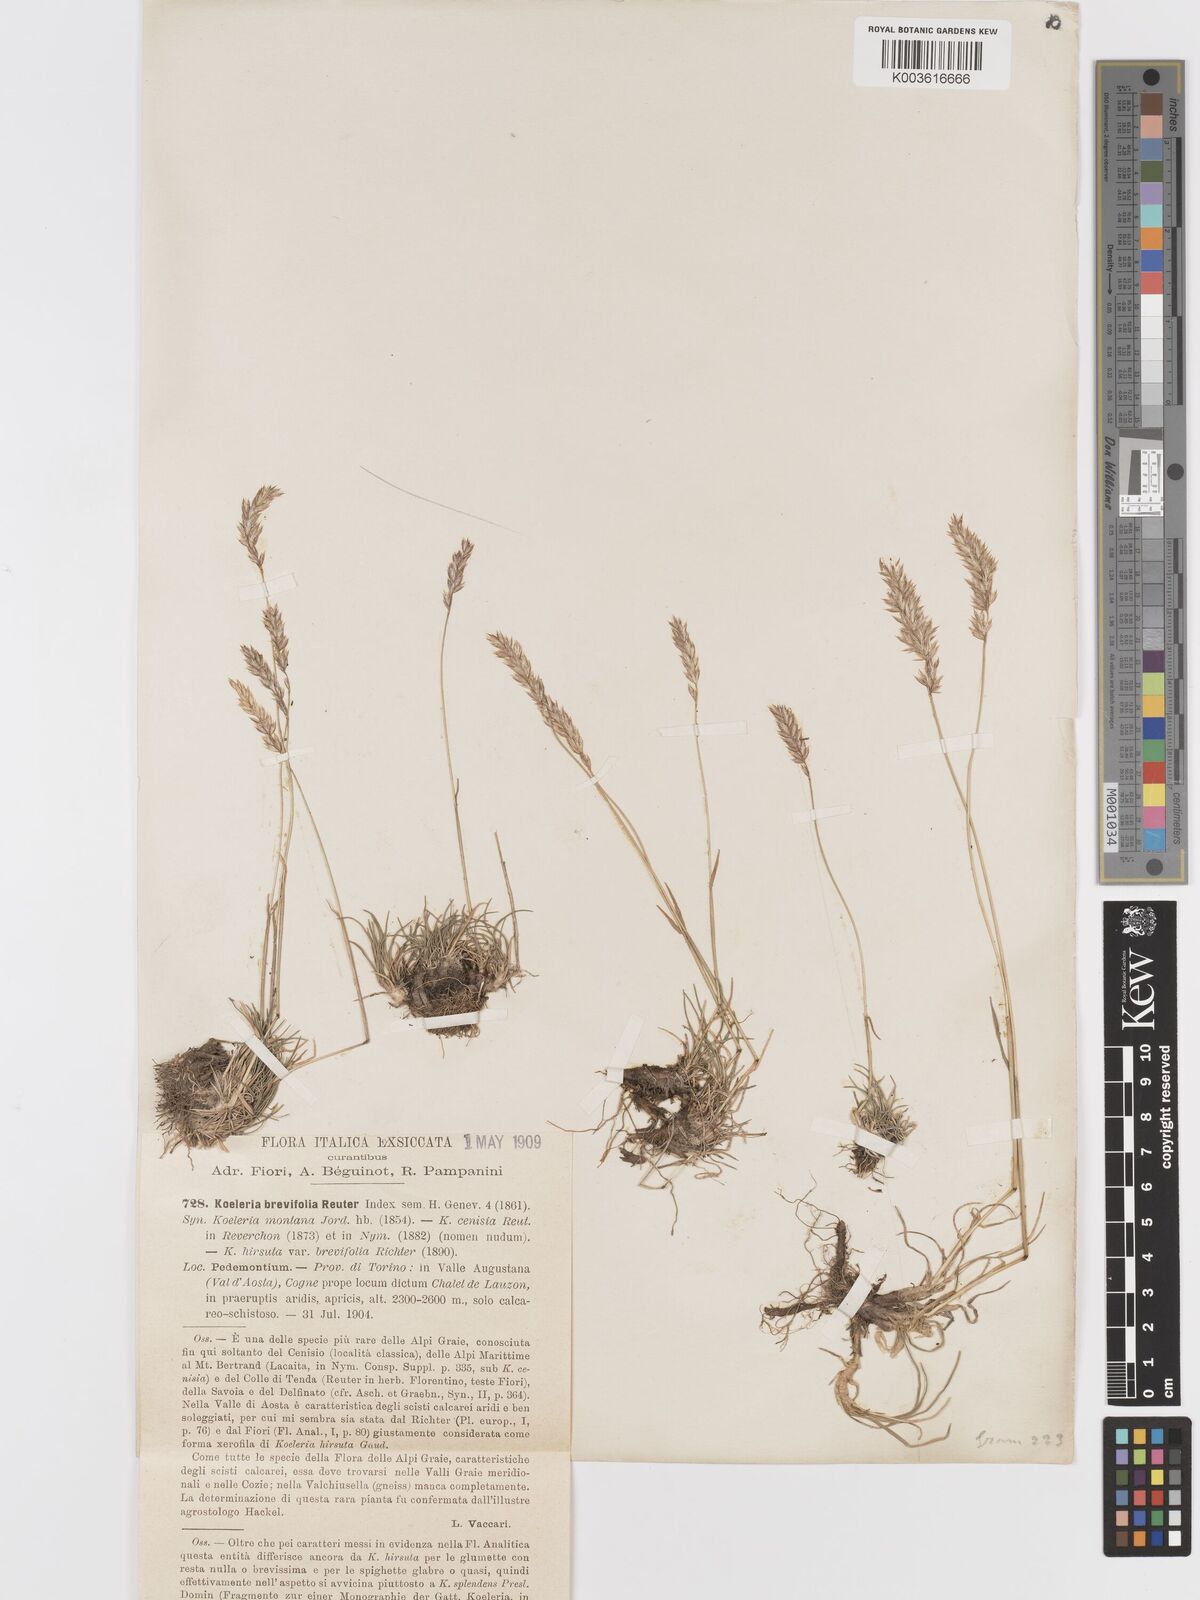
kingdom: Plantae
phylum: Tracheophyta
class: Liliopsida
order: Poales
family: Poaceae
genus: Koeleria
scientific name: Koeleria cenisia
